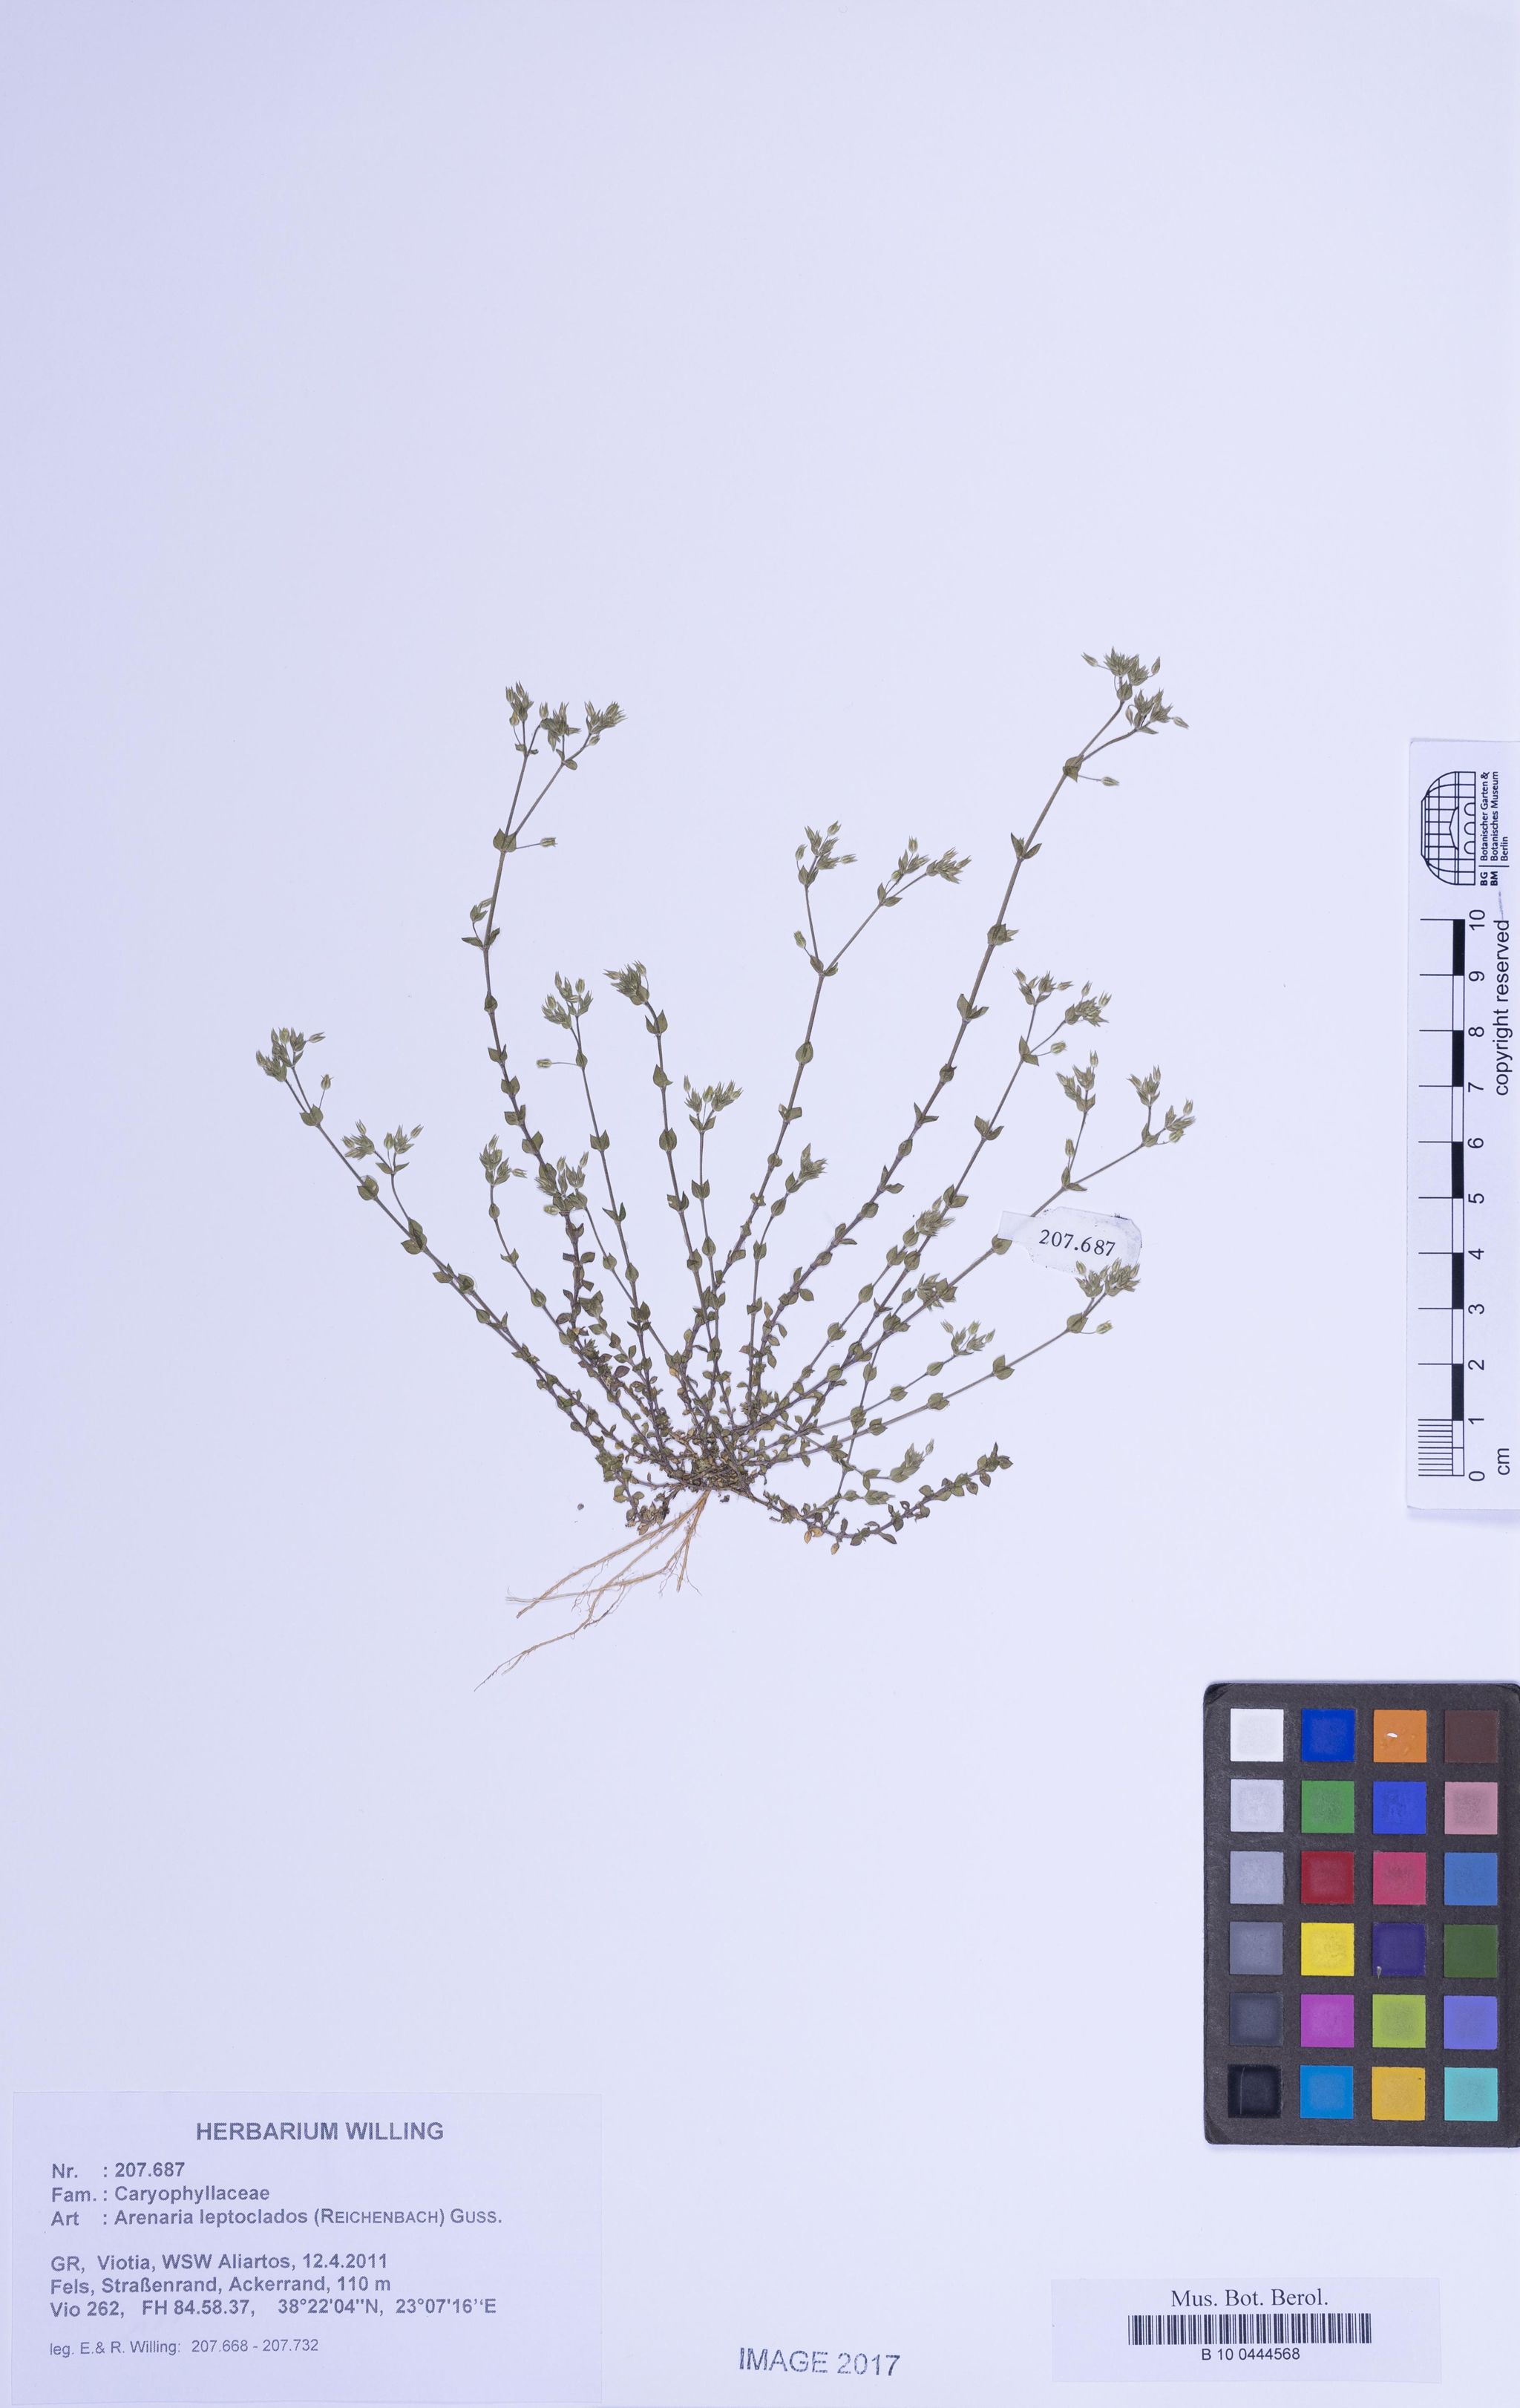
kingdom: Plantae
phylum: Tracheophyta
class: Magnoliopsida
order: Caryophyllales
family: Caryophyllaceae
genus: Arenaria
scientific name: Arenaria leptoclados
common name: Thyme-leaved sandwort
